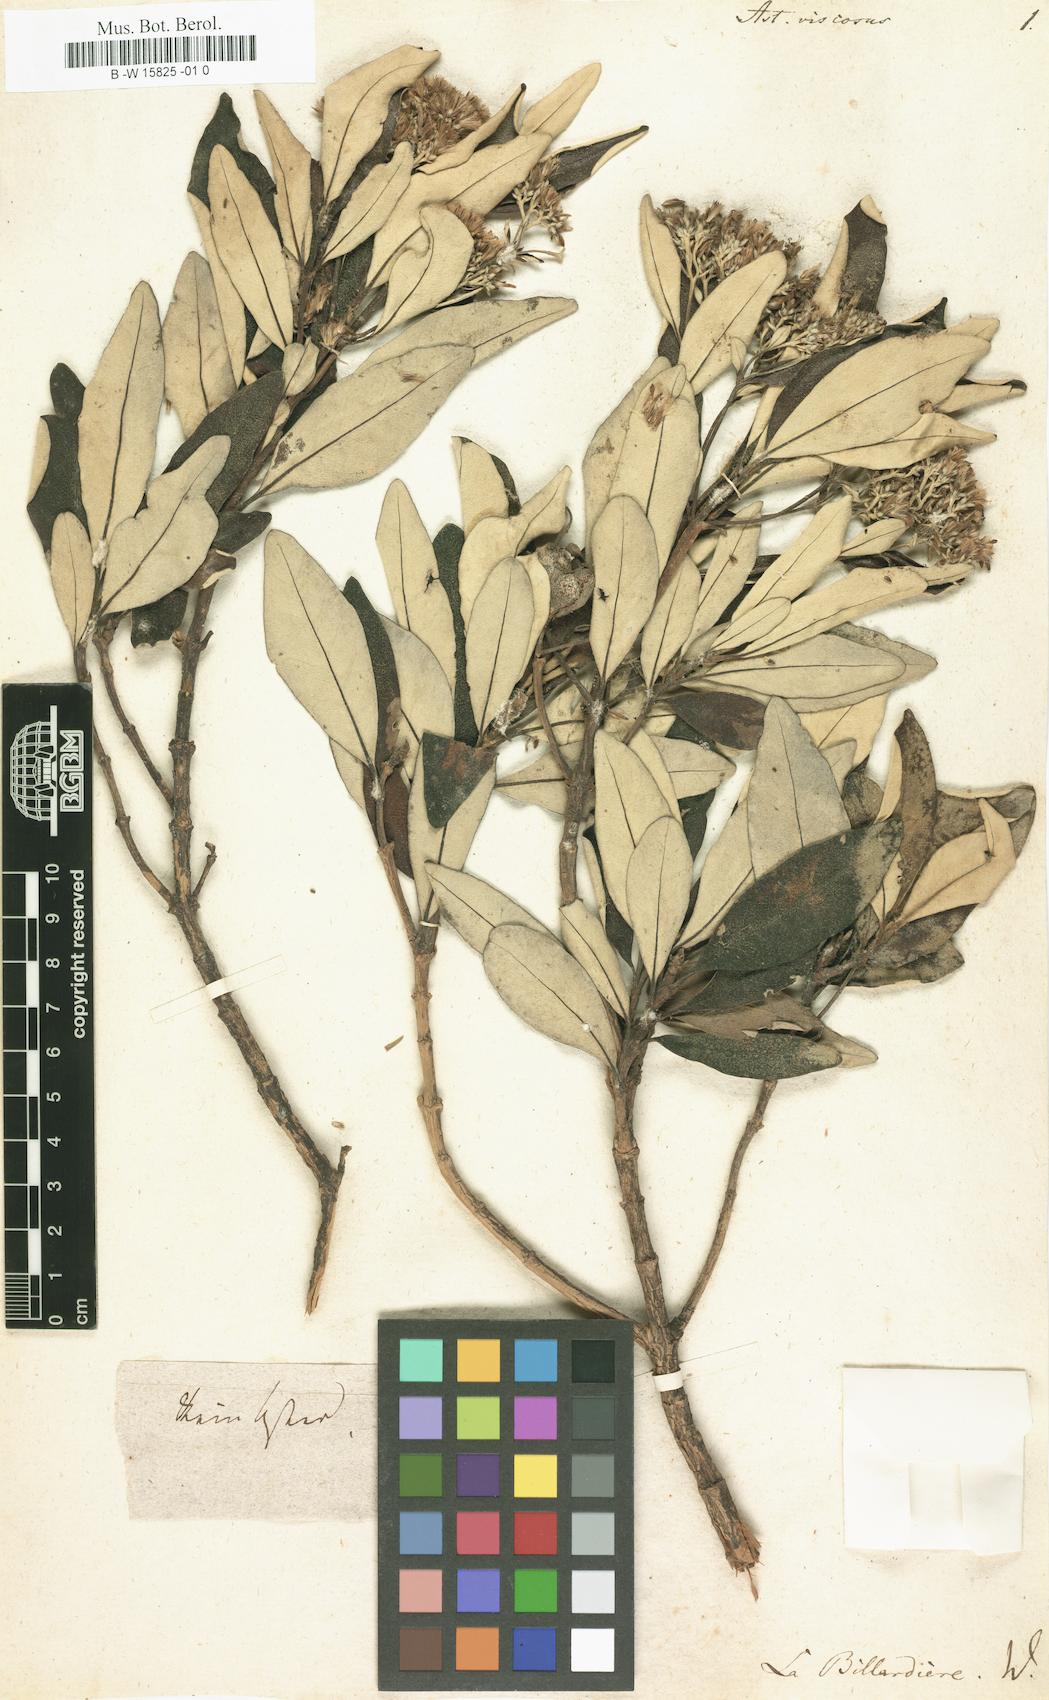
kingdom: Plantae
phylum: Tracheophyta
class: Magnoliopsida
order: Asterales
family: Asteraceae
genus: Olearia
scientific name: Olearia viscosa
